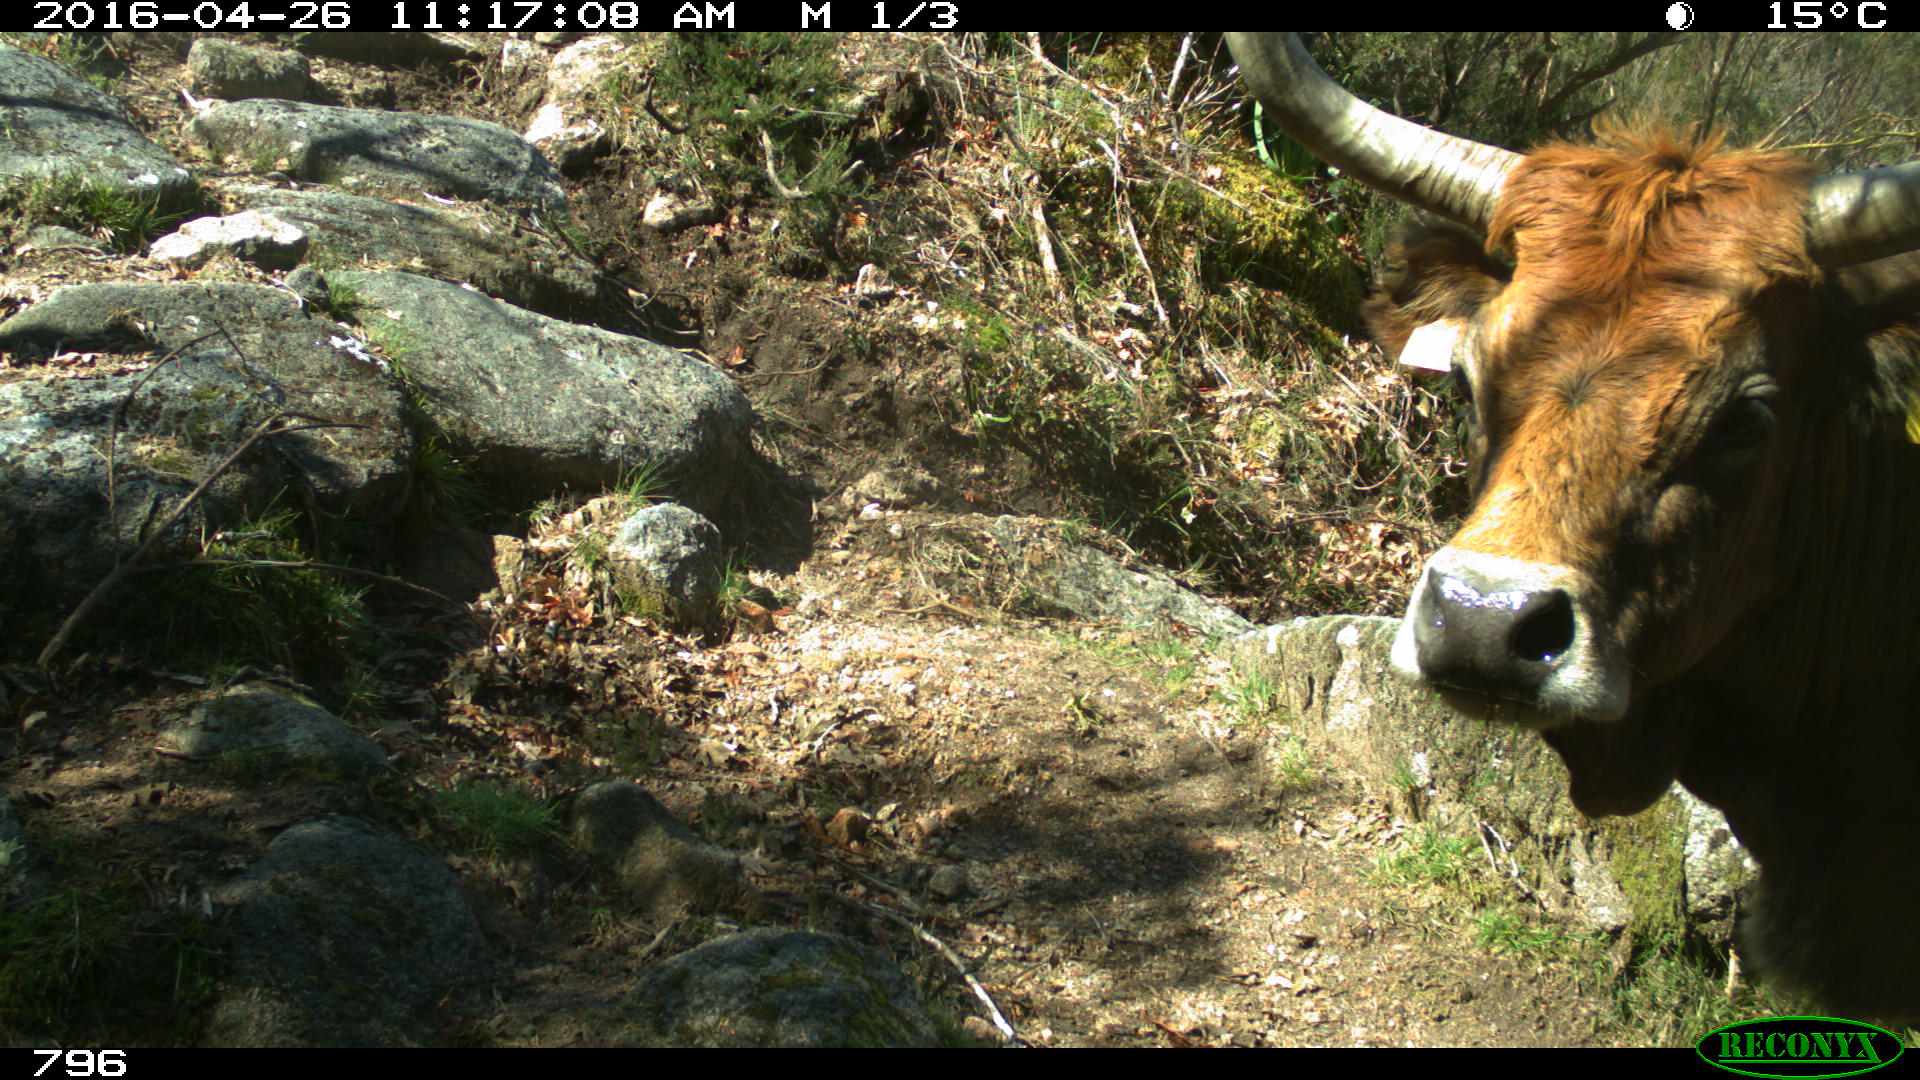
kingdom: Animalia
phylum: Chordata
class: Mammalia
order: Artiodactyla
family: Bovidae
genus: Bos
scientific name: Bos taurus
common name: Domesticated cattle
